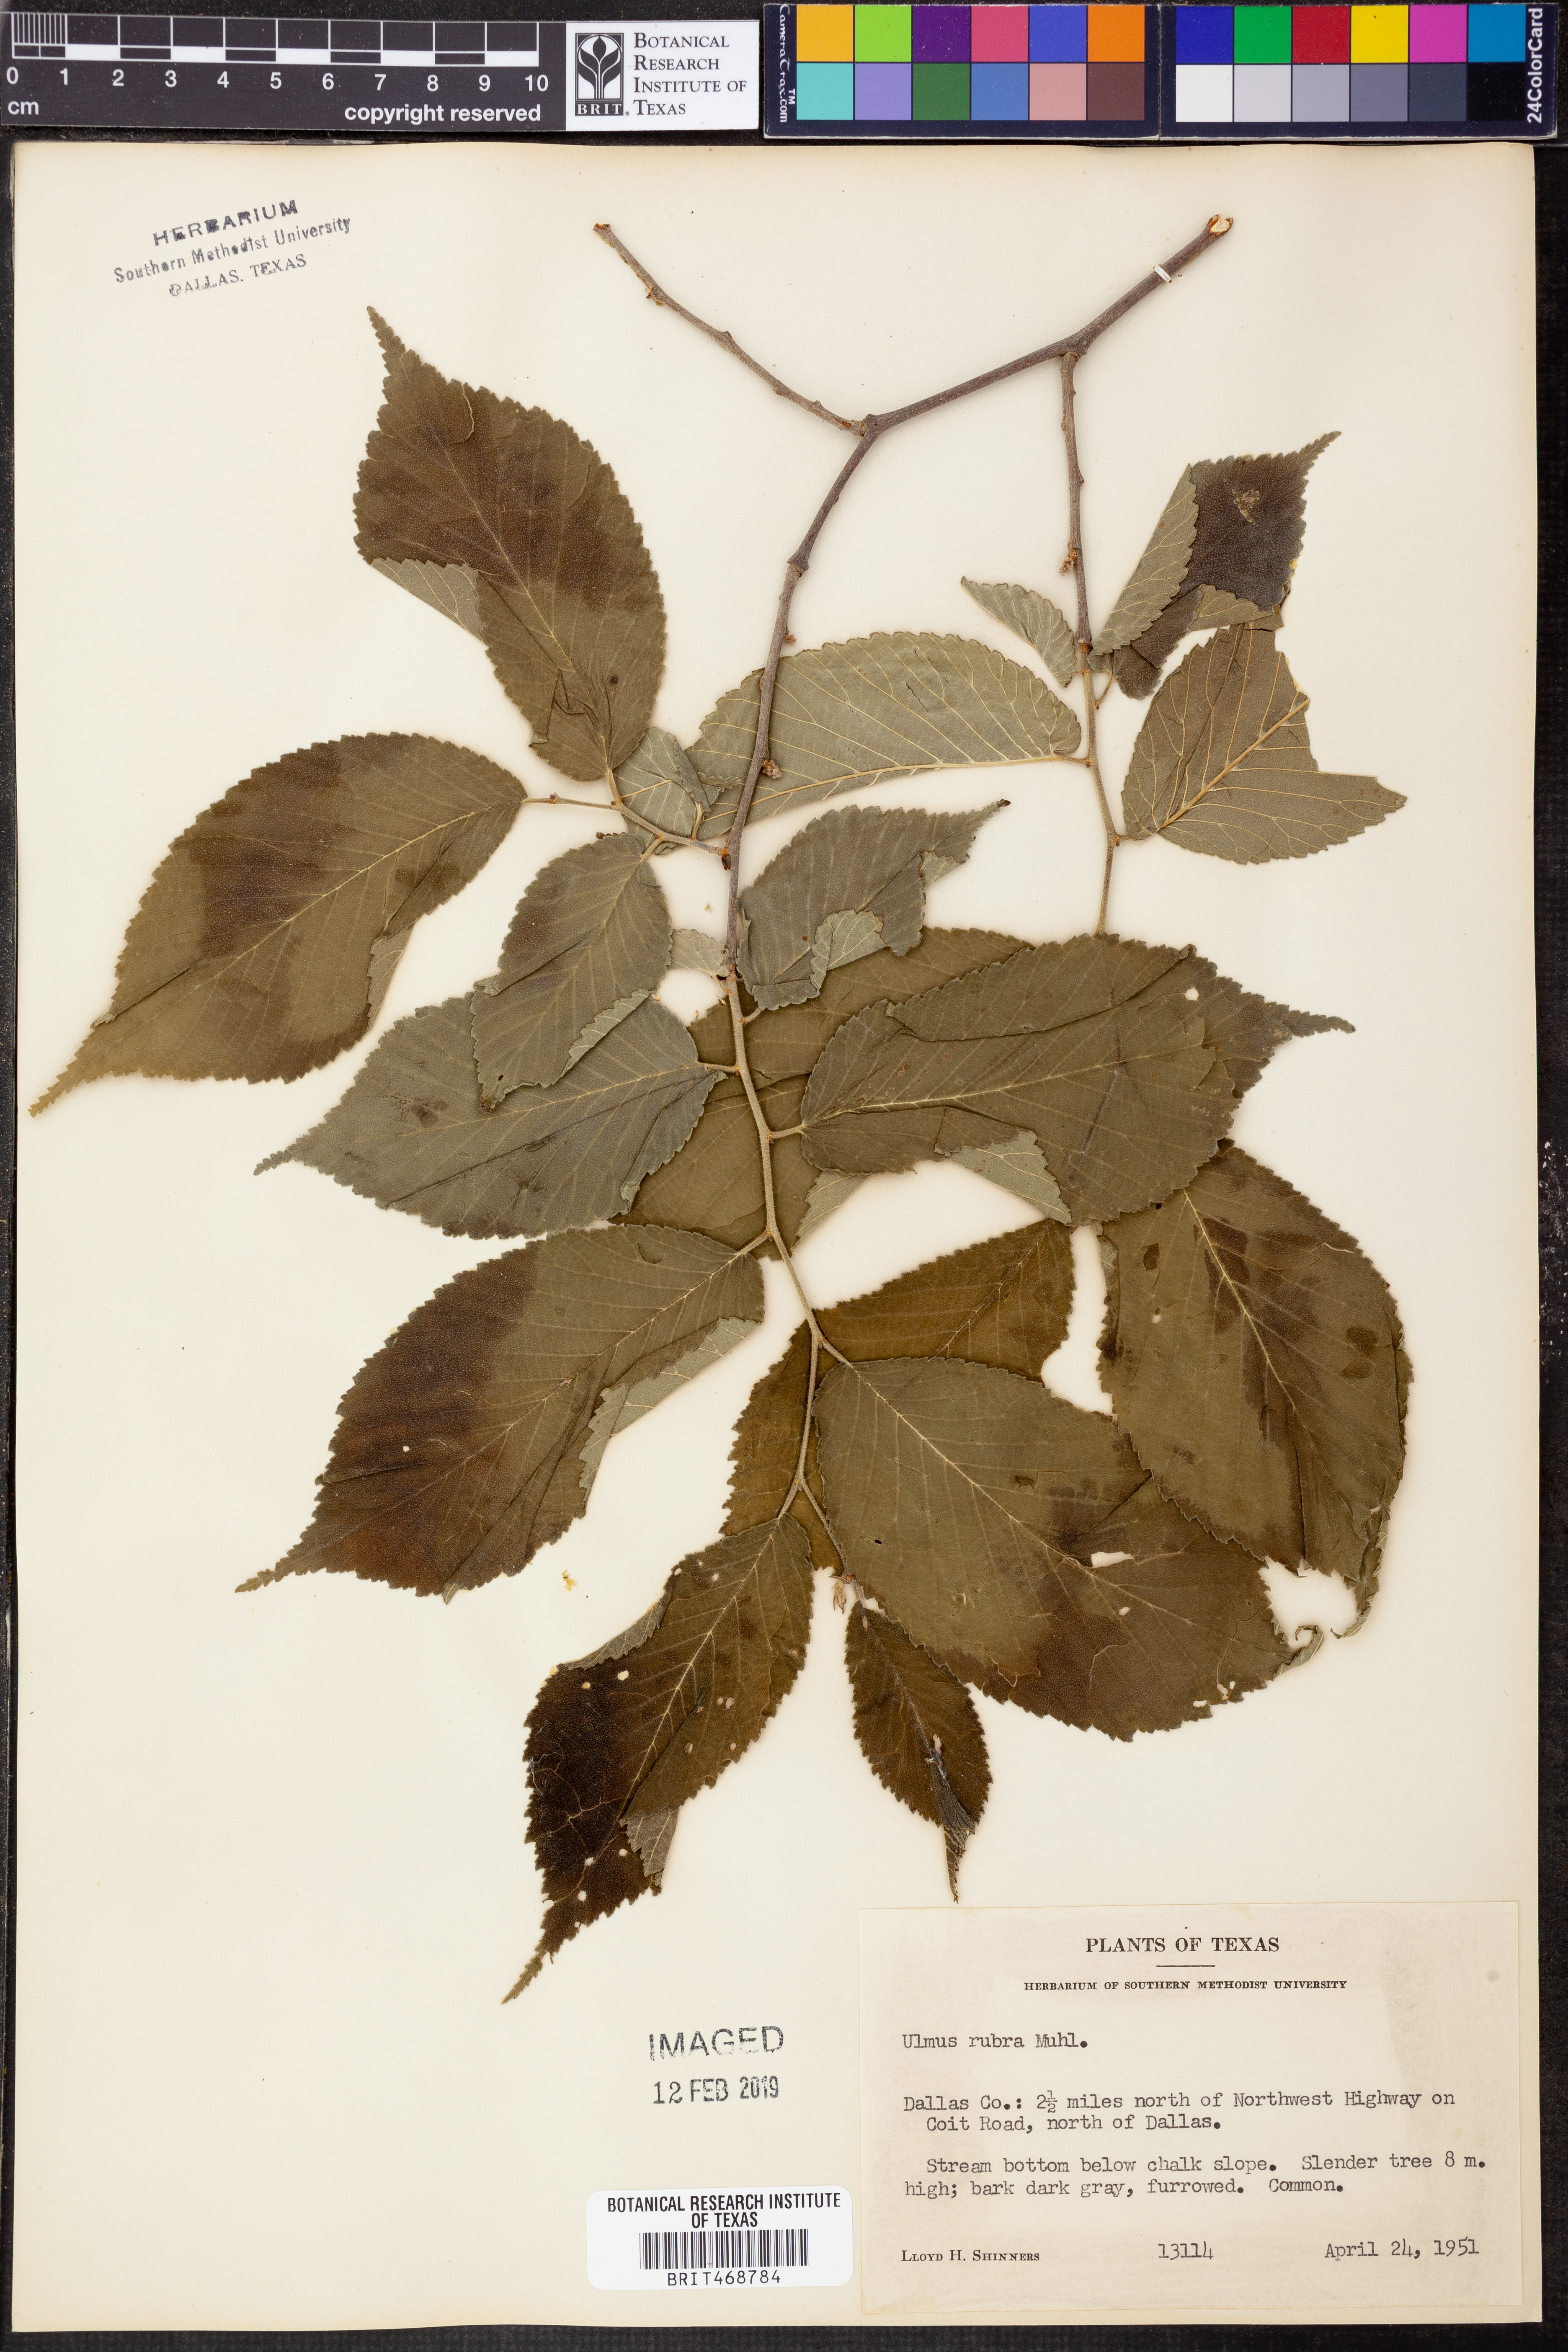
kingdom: Plantae
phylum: Tracheophyta
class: Magnoliopsida
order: Rosales
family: Ulmaceae
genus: Ulmus
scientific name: Ulmus rubra
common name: Slippery elm
